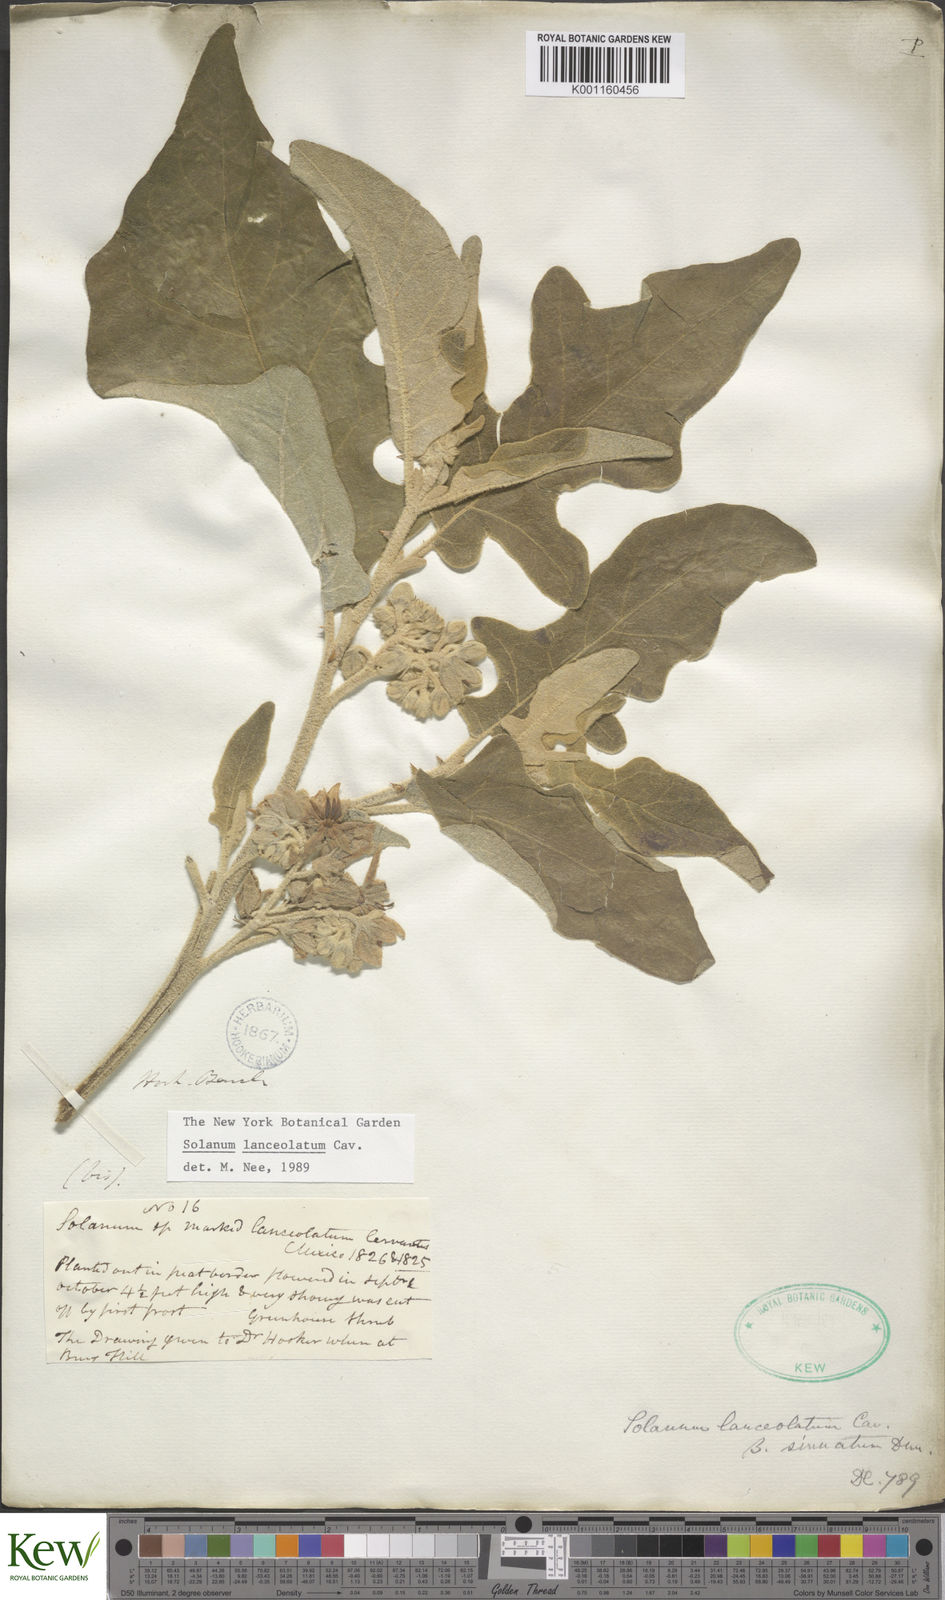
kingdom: Plantae
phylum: Tracheophyta
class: Magnoliopsida
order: Solanales
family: Solanaceae
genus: Solanum
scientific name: Solanum lanceolatum
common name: Orangeberry nightshade
